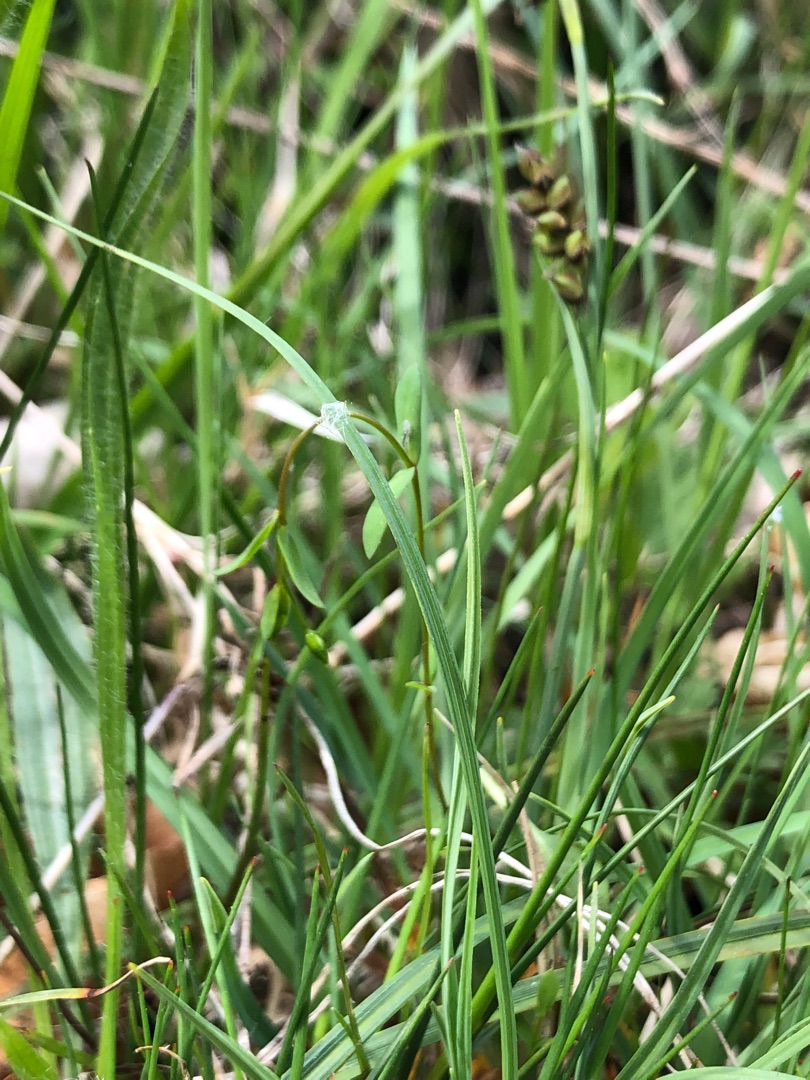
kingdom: Plantae
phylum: Tracheophyta
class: Magnoliopsida
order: Malpighiales
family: Linaceae
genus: Linum
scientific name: Linum catharticum
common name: Vild hør
